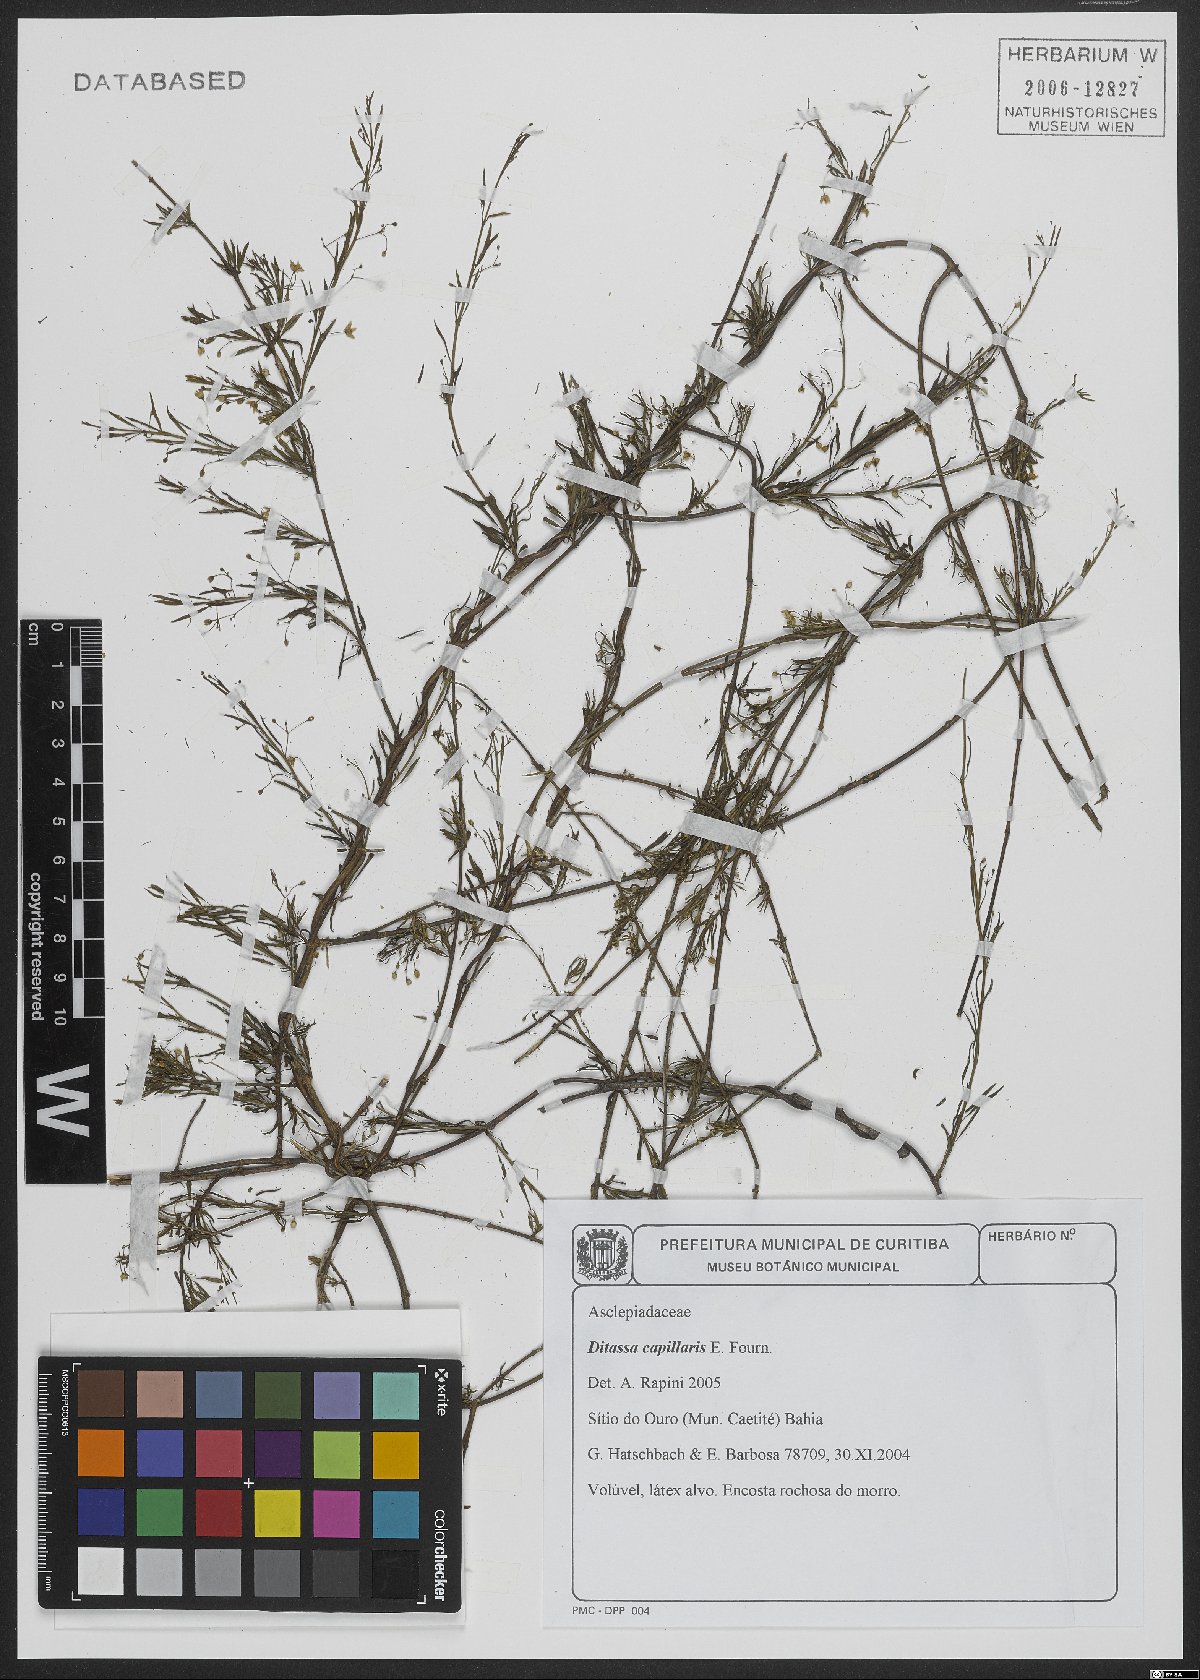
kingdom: Plantae
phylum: Tracheophyta
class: Magnoliopsida
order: Gentianales
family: Apocynaceae
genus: Ditassa
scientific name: Ditassa capillaris
